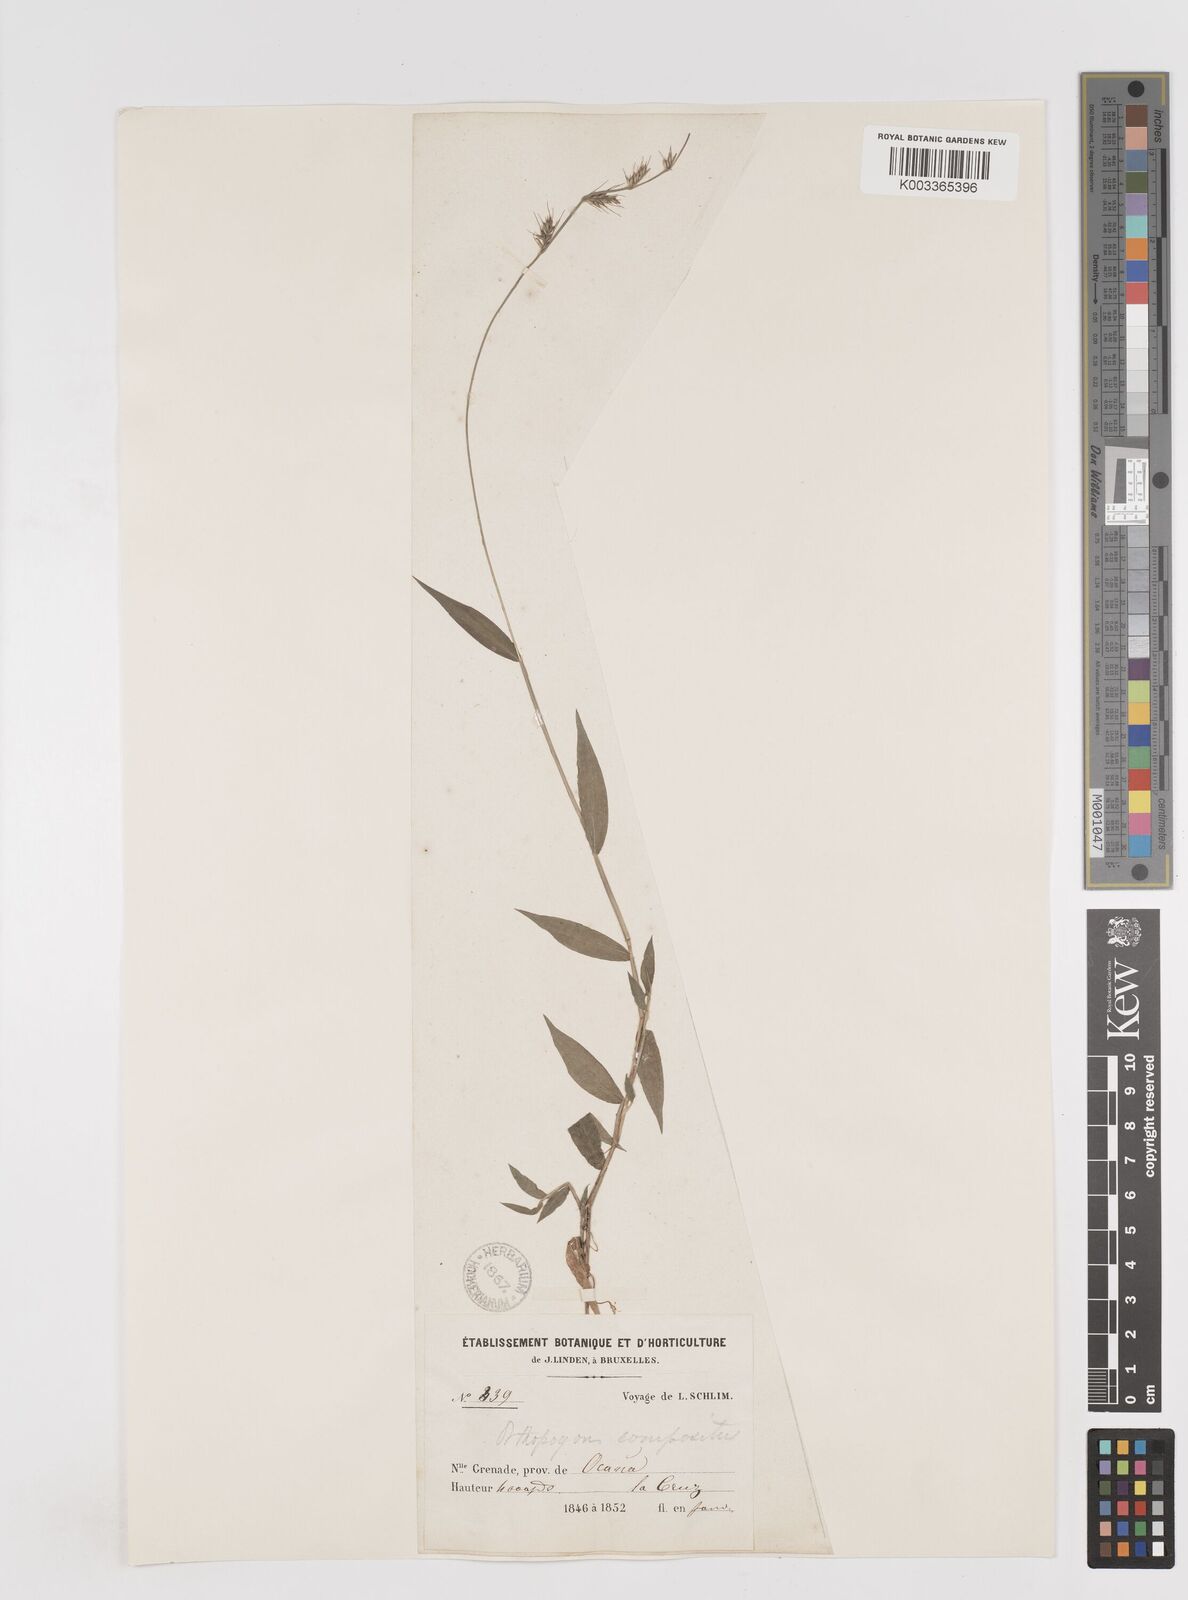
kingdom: Plantae
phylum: Tracheophyta
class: Liliopsida
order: Poales
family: Poaceae
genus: Oplismenus
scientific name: Oplismenus hirtellus
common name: Basketgrass
